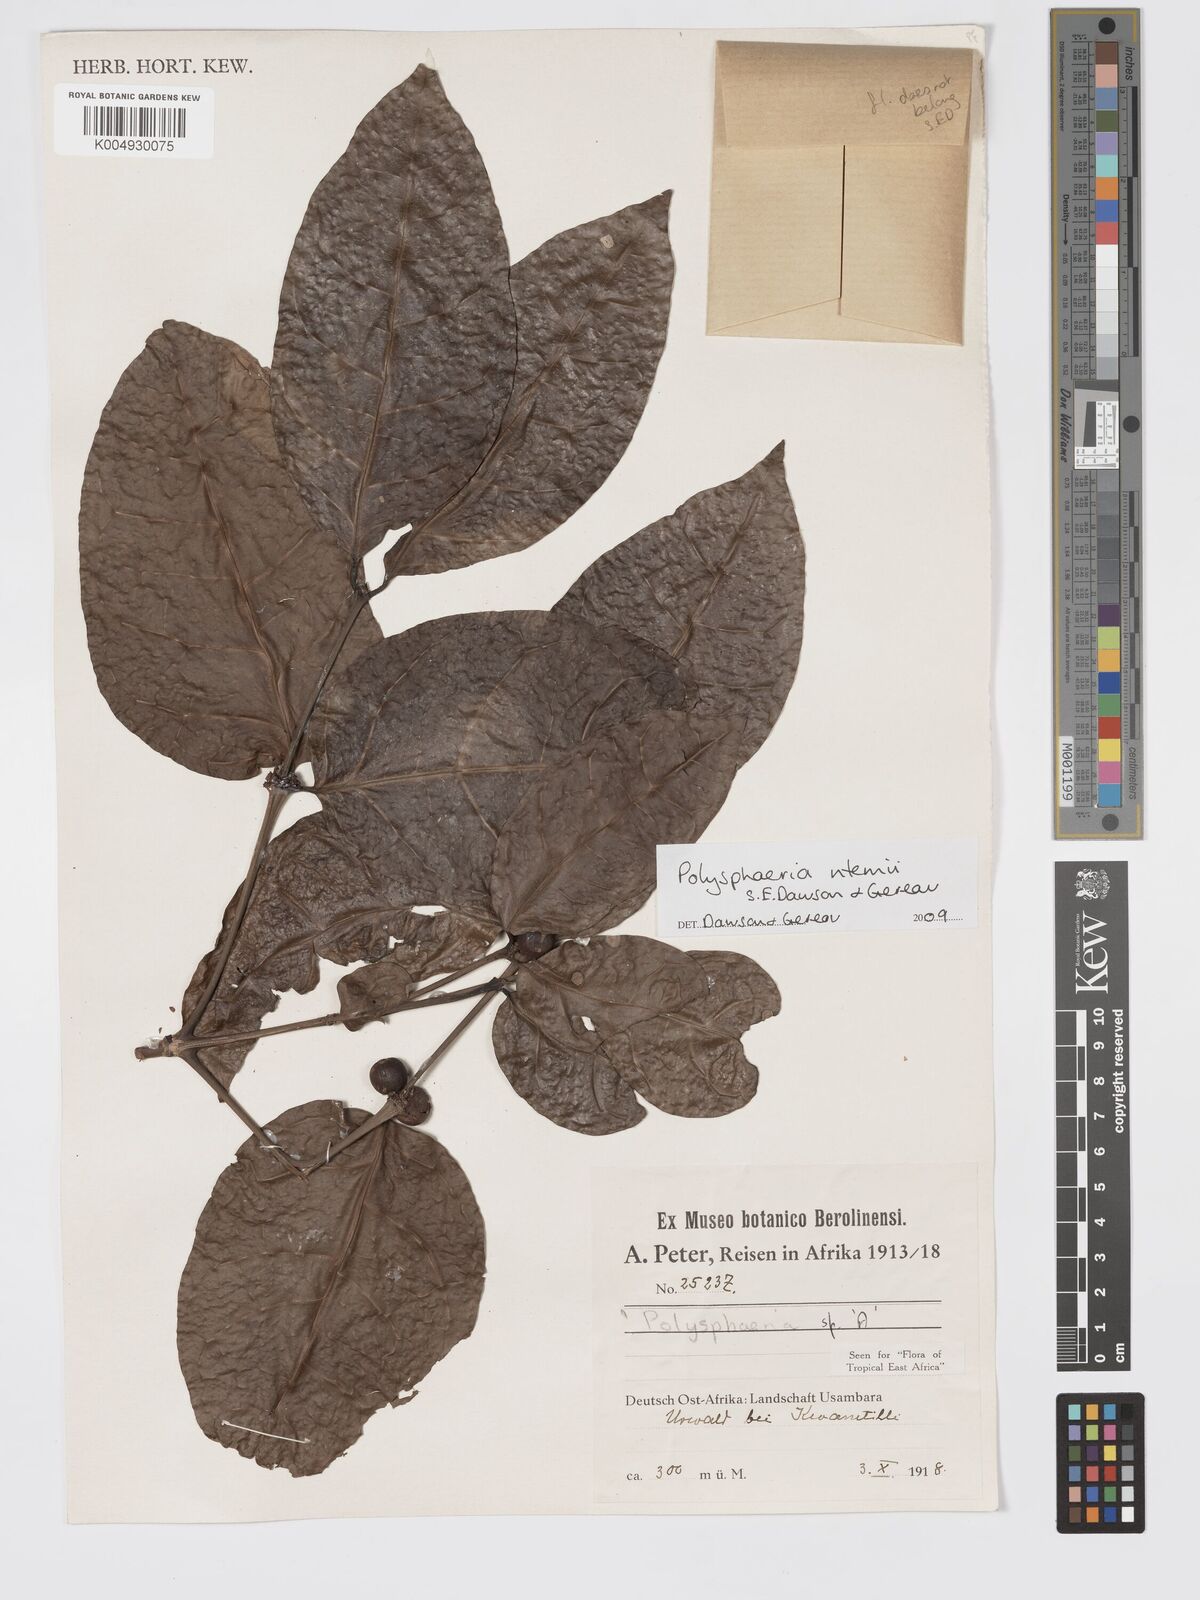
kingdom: Plantae
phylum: Tracheophyta
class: Magnoliopsida
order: Gentianales
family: Rubiaceae
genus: Polysphaeria
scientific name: Polysphaeria ntemii
